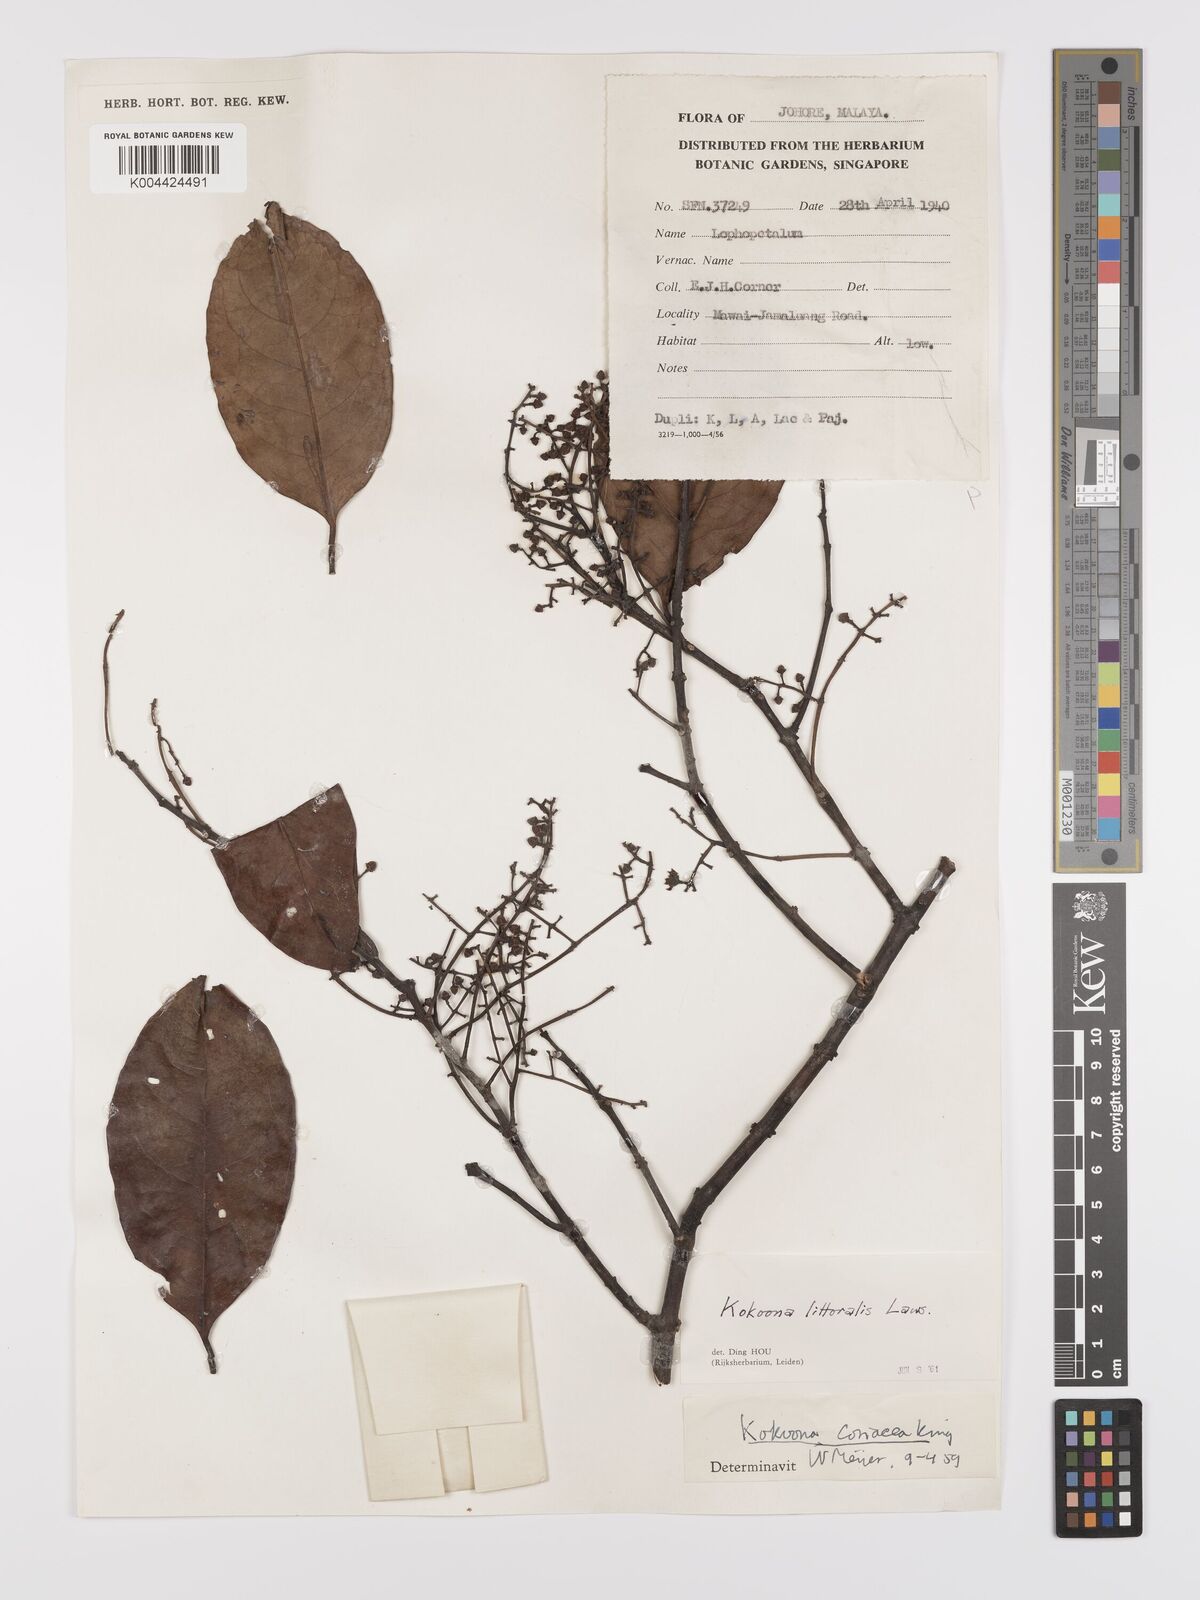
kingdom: Plantae
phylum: Tracheophyta
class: Magnoliopsida
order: Celastrales
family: Celastraceae
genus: Kokoona
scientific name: Kokoona littoralis
